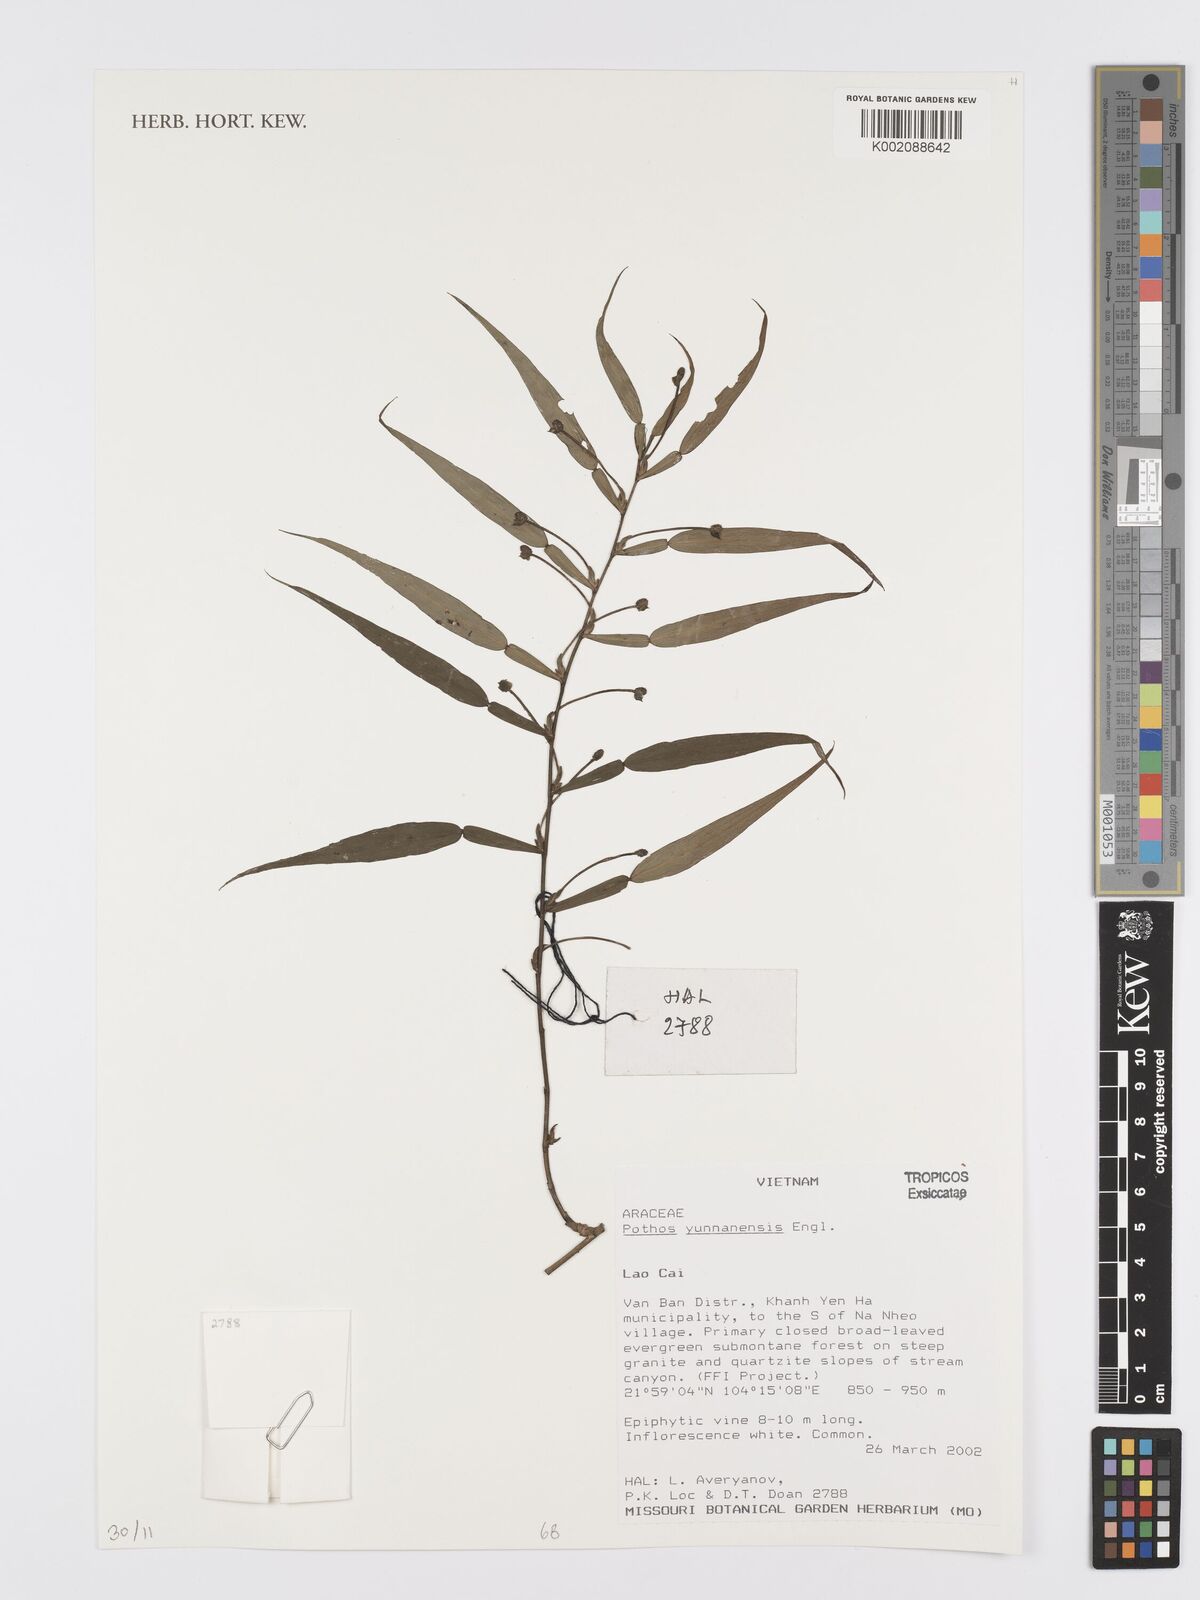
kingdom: Plantae
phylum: Tracheophyta
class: Liliopsida
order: Alismatales
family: Araceae
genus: Pothos
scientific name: Pothos chinensis
